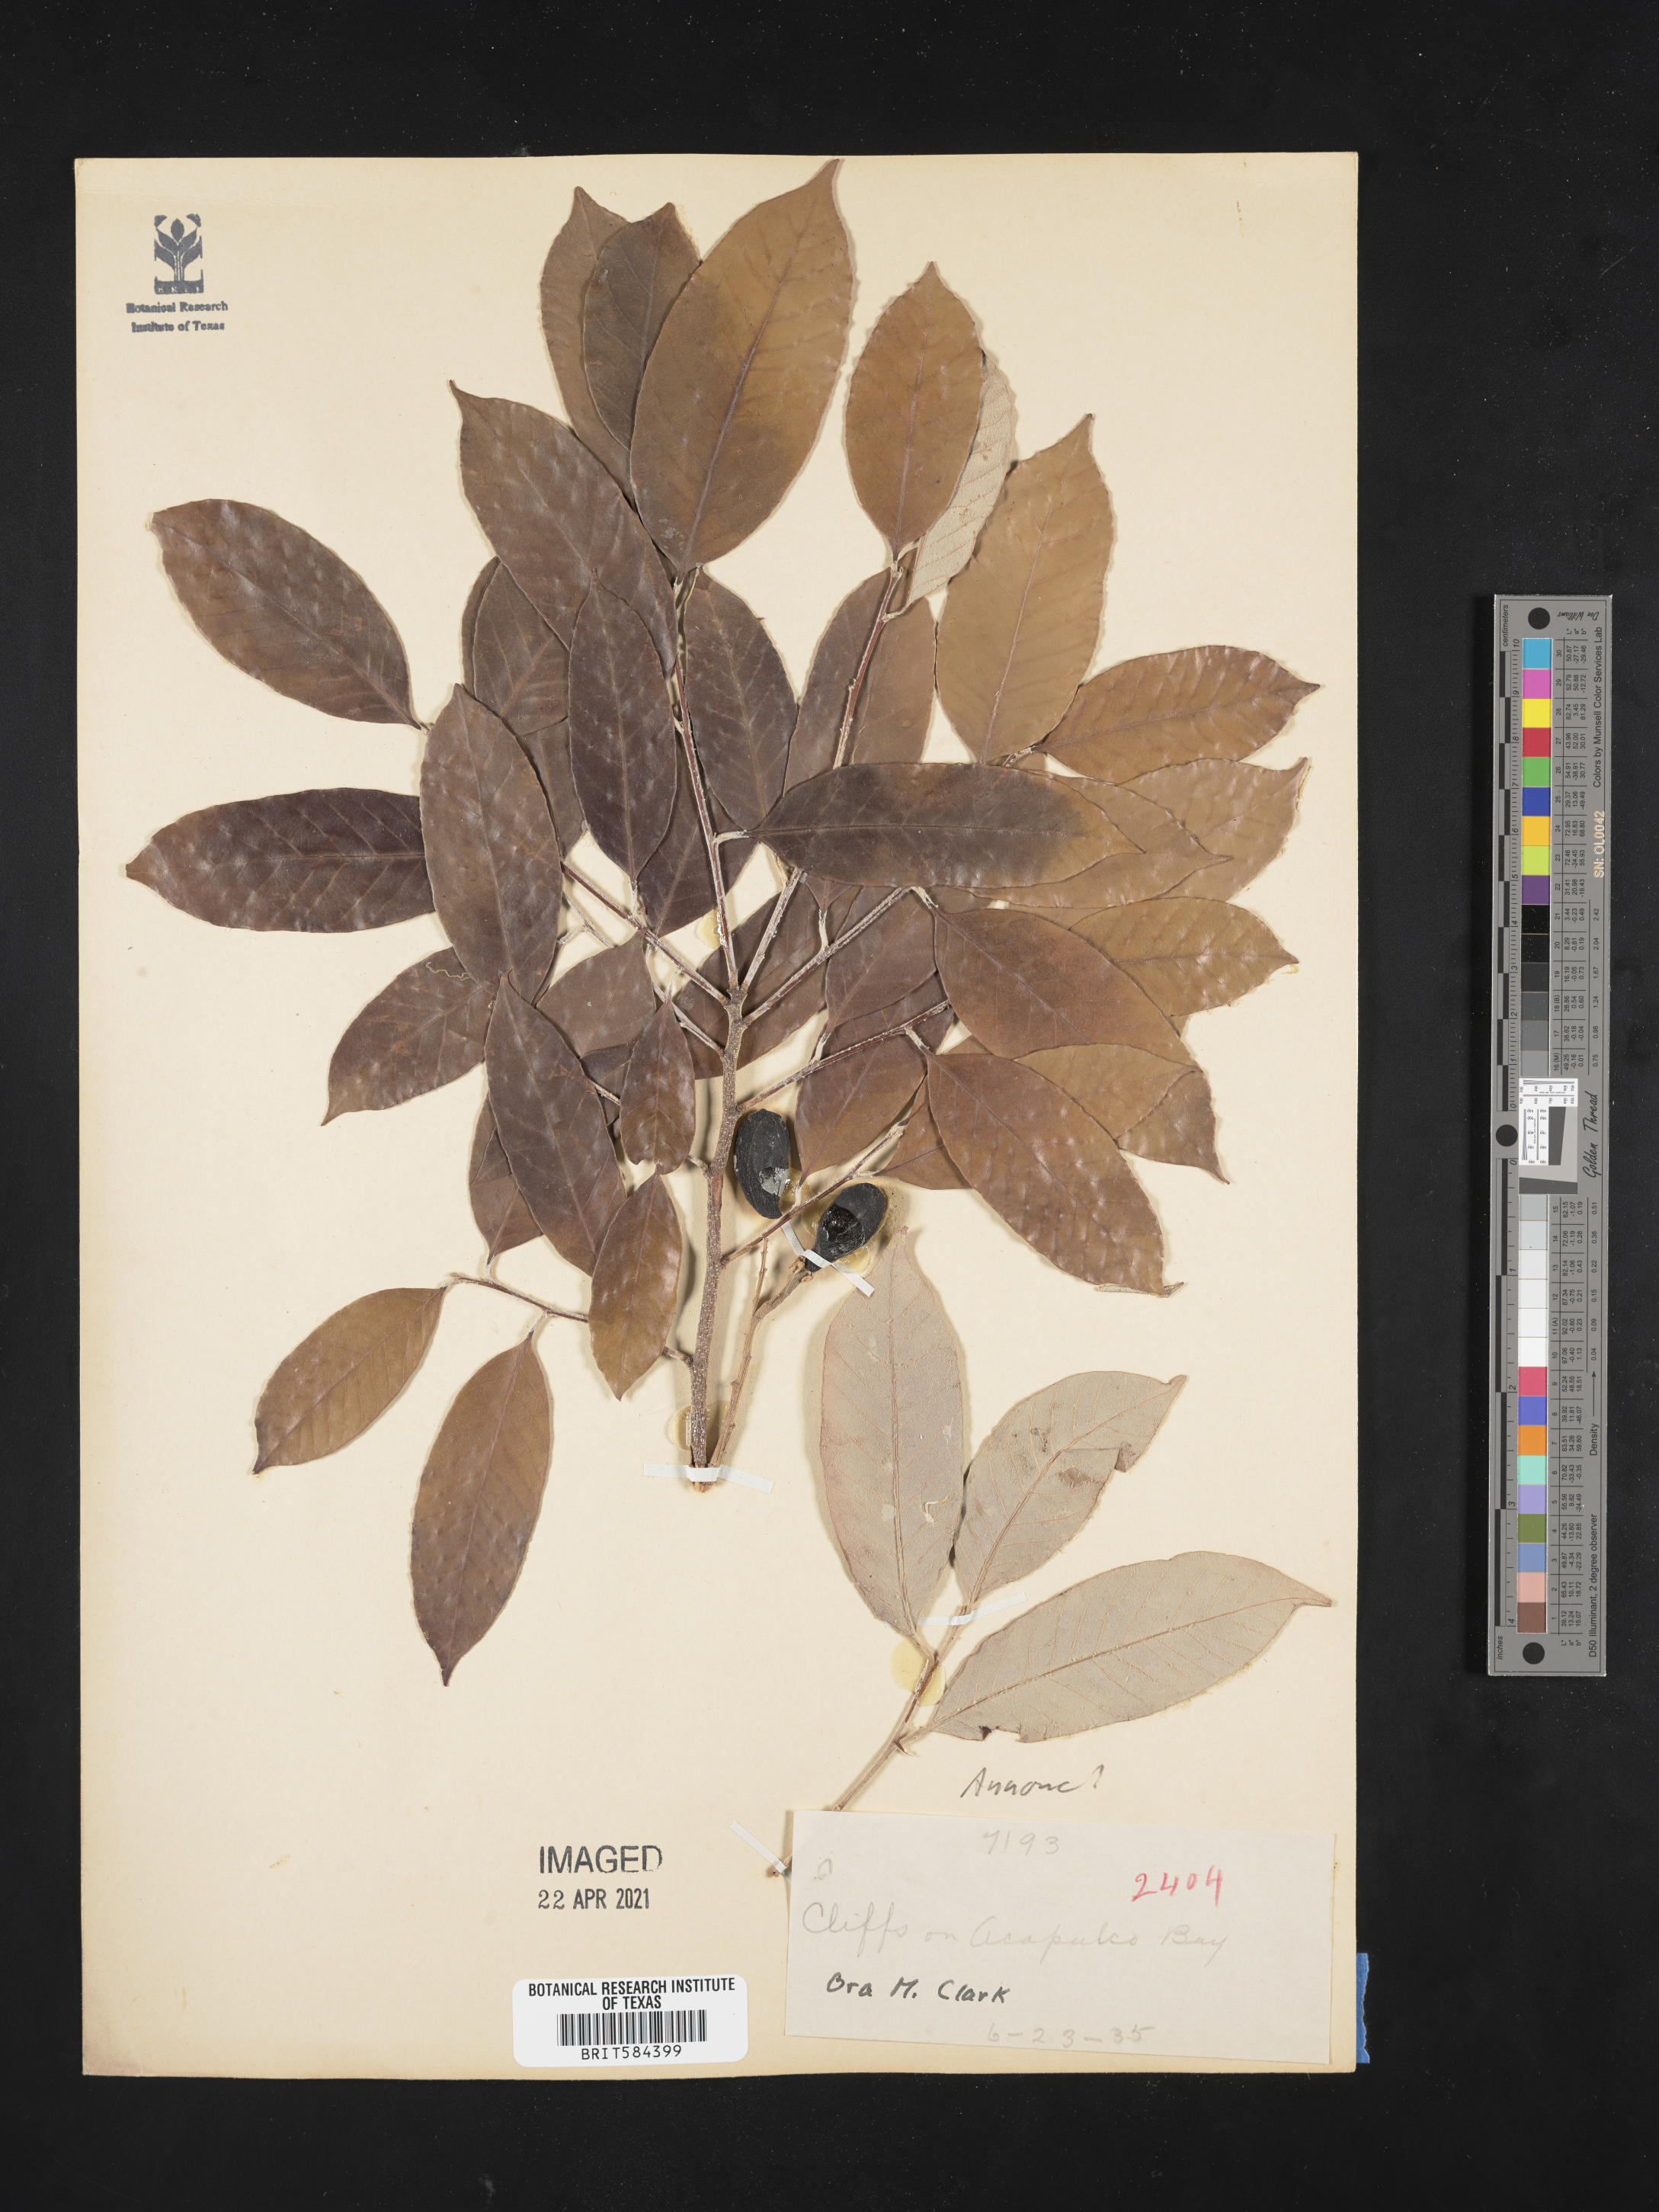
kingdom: Plantae
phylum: Tracheophyta
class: Magnoliopsida
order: Magnoliales
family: Annonaceae
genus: Annona
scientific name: Annona
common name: Anona
